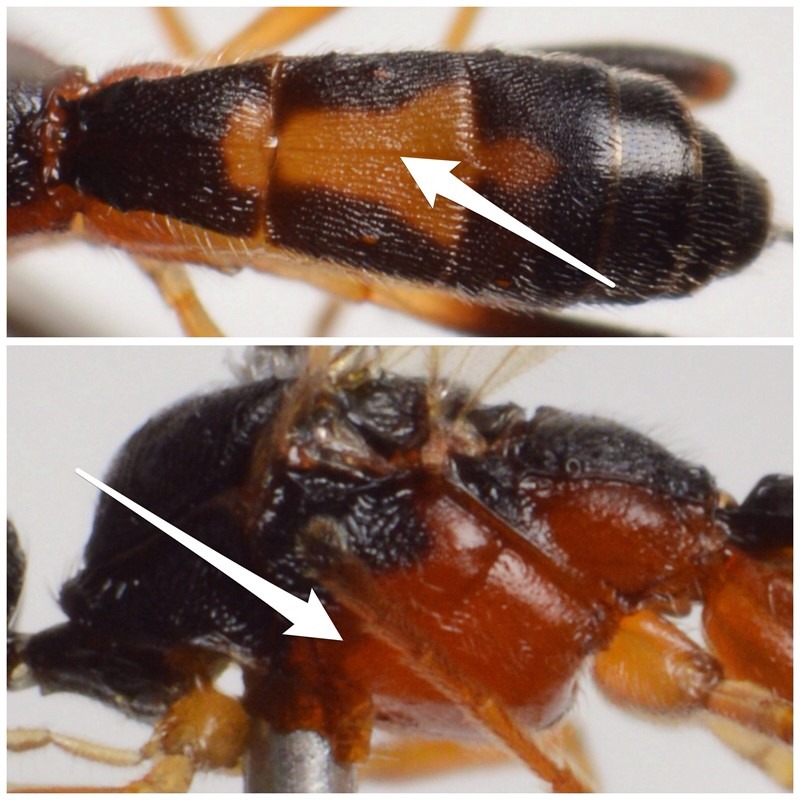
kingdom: Animalia
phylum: Arthropoda
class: Insecta
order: Hymenoptera
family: Braconidae
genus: Aleiodes
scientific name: Aleiodes vaughani
